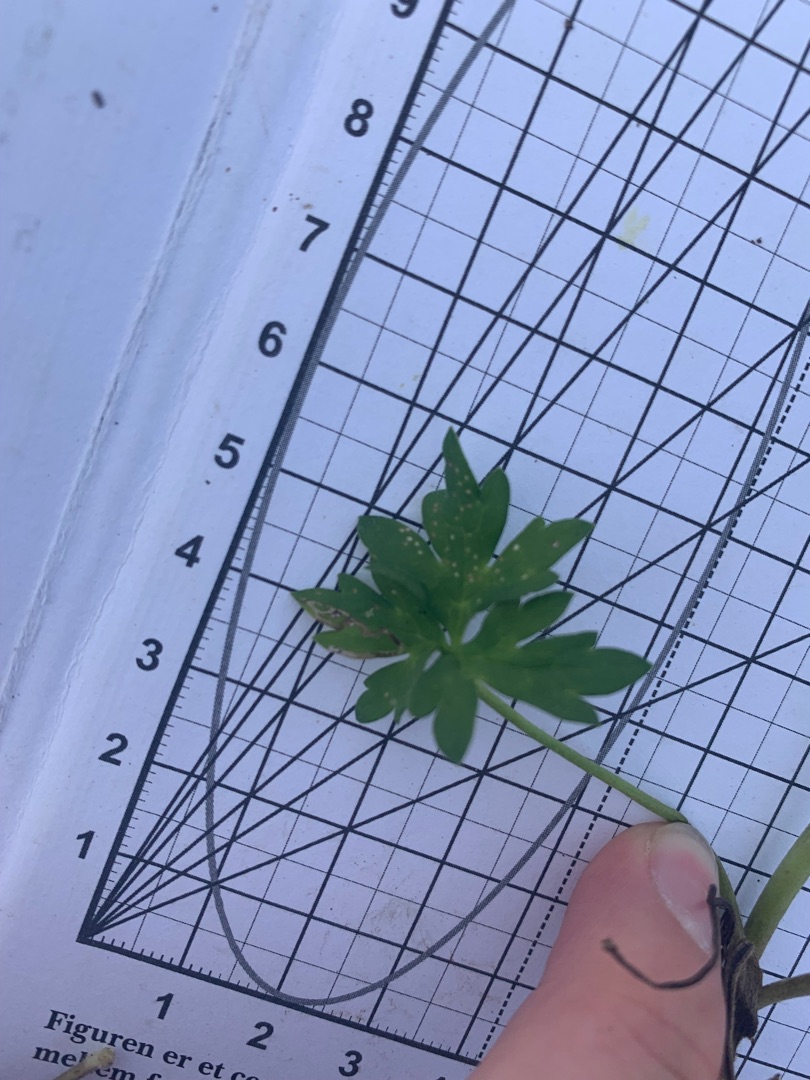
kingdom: Plantae
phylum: Tracheophyta
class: Magnoliopsida
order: Ranunculales
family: Ranunculaceae
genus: Ranunculus
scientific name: Ranunculus acris
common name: Bidende ranunkel
